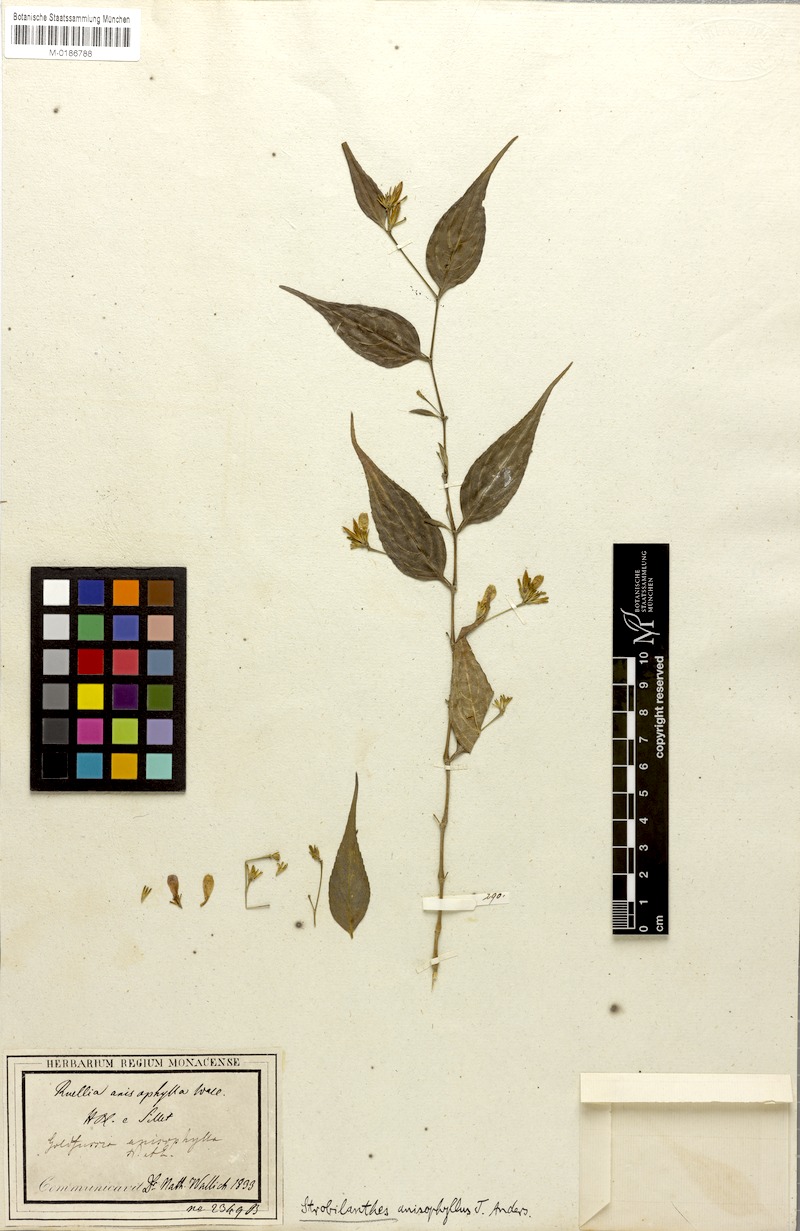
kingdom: Plantae
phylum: Tracheophyta
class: Magnoliopsida
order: Lamiales
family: Acanthaceae
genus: Strobilanthes
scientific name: Strobilanthes anisophylla
